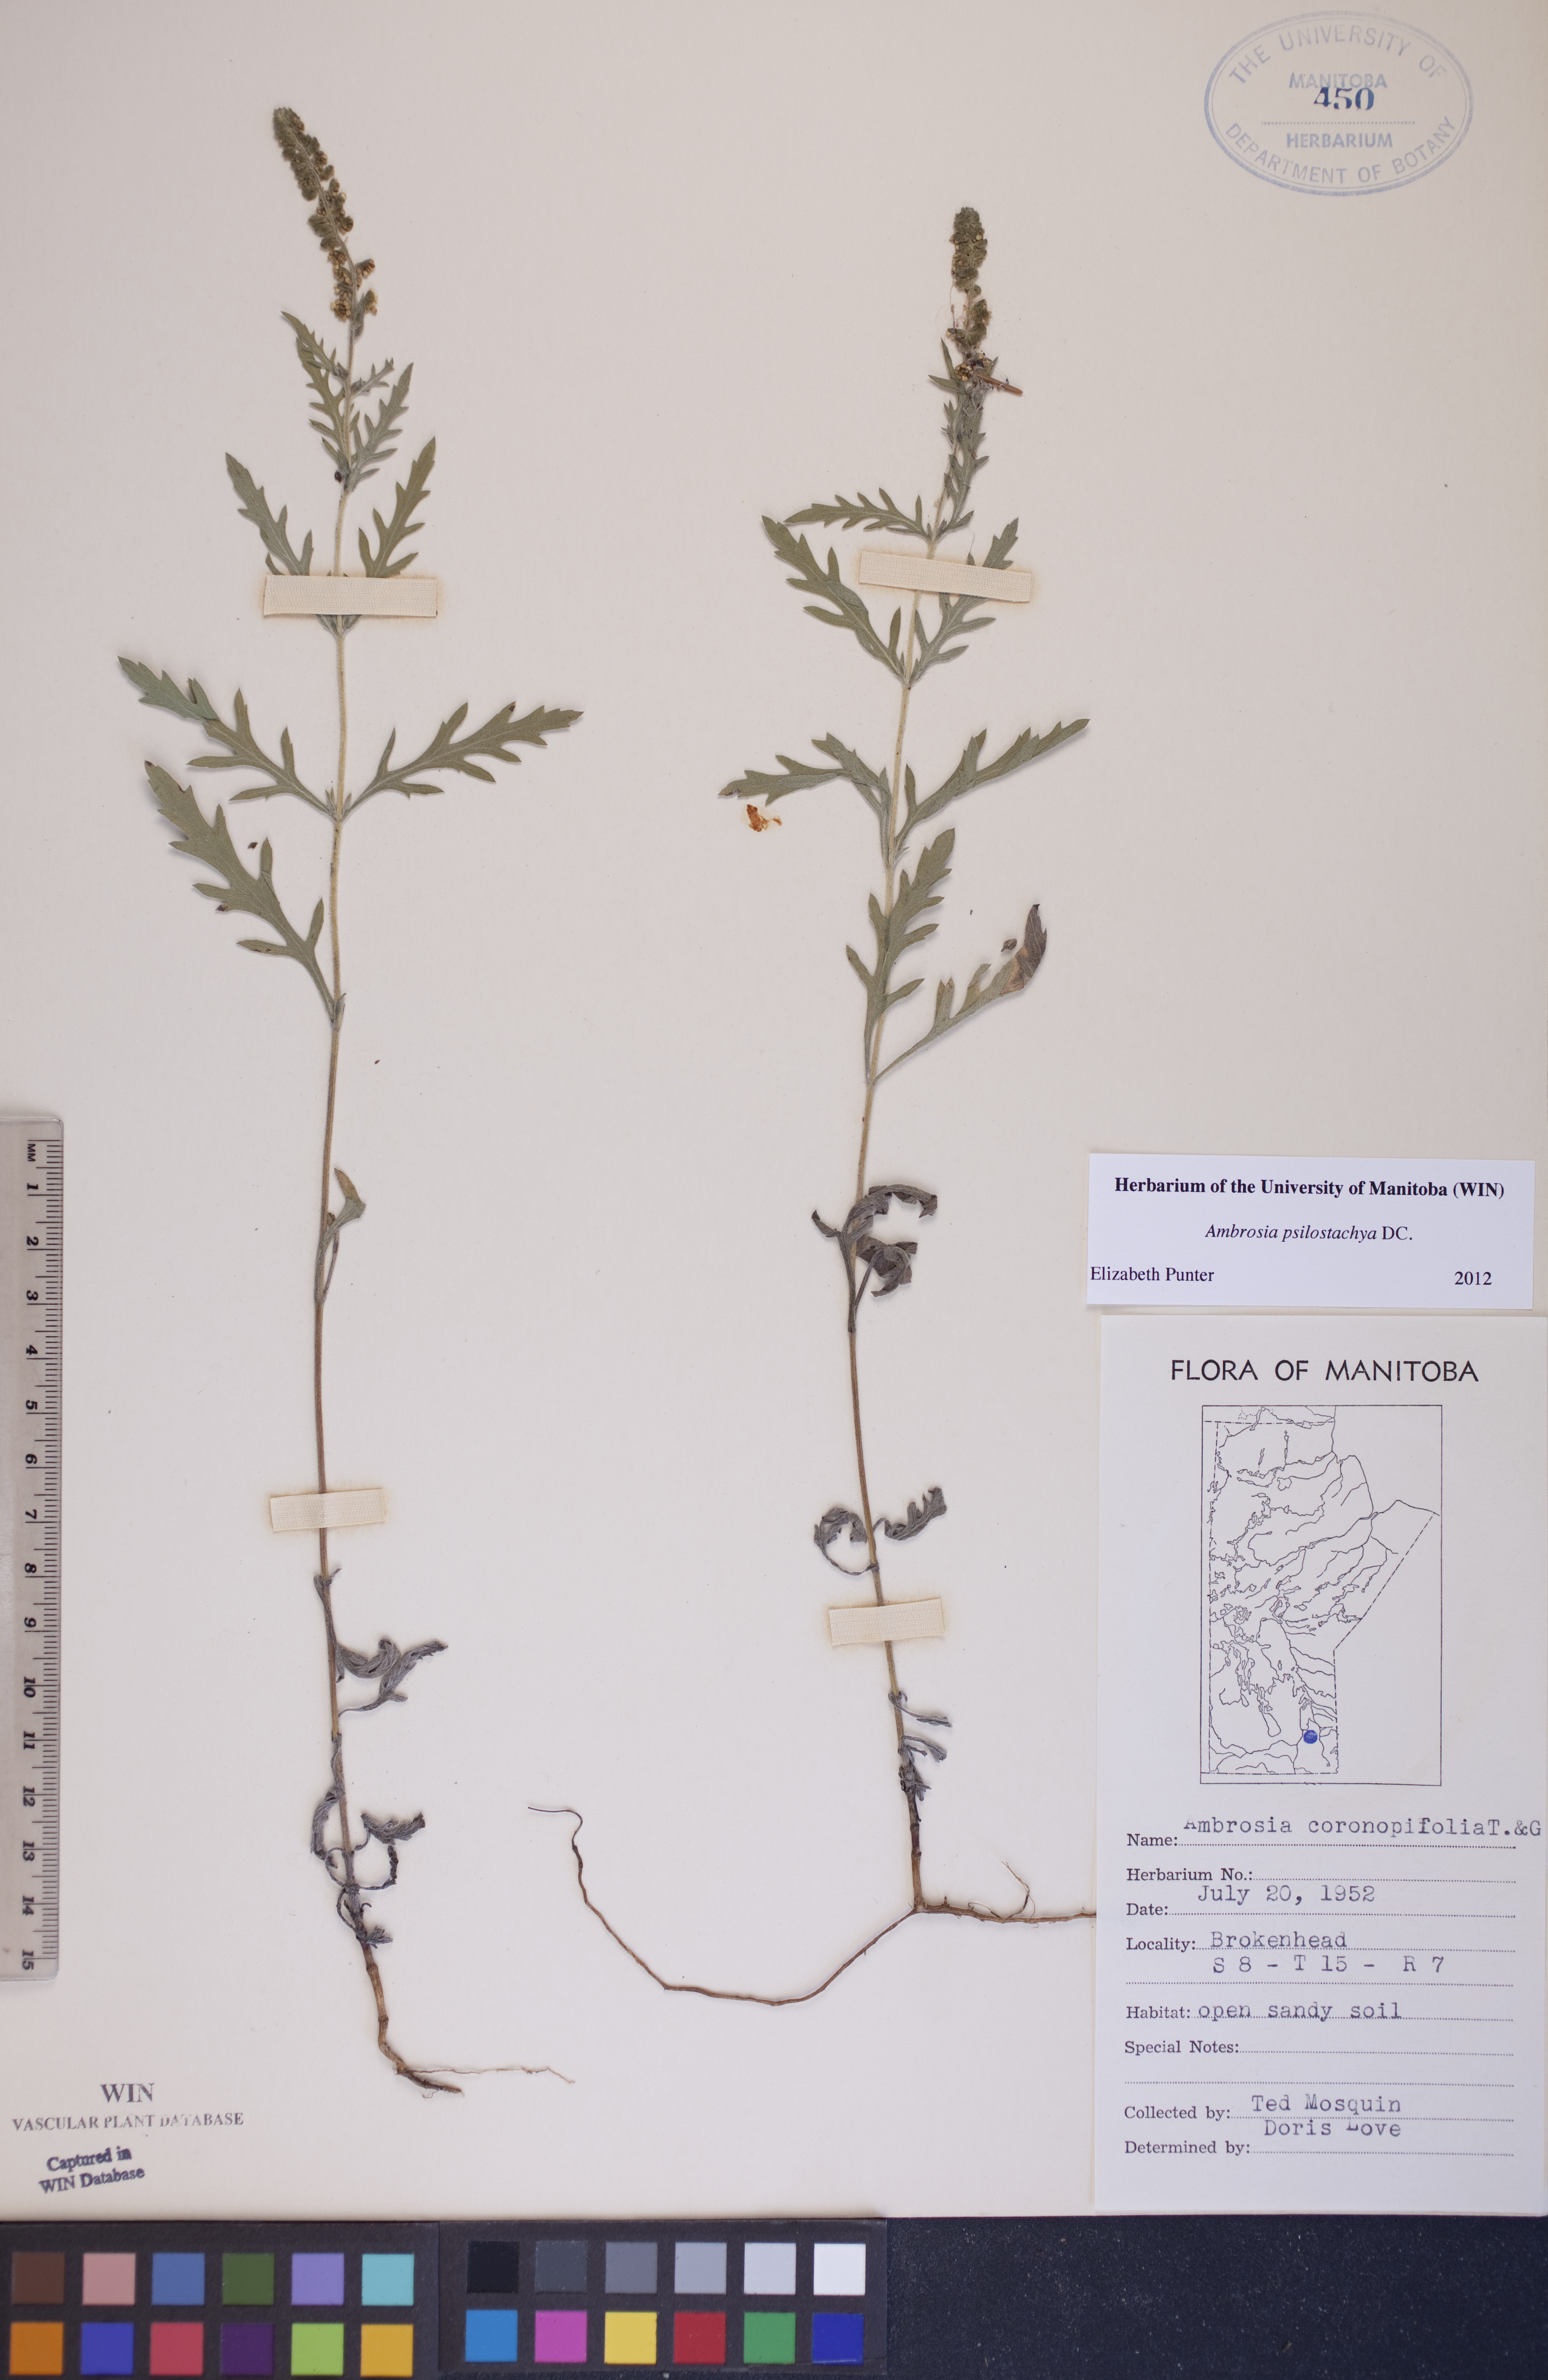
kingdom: Plantae
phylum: Tracheophyta
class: Magnoliopsida
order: Asterales
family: Asteraceae
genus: Ambrosia
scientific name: Ambrosia psilostachya
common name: Perennial ragweed
